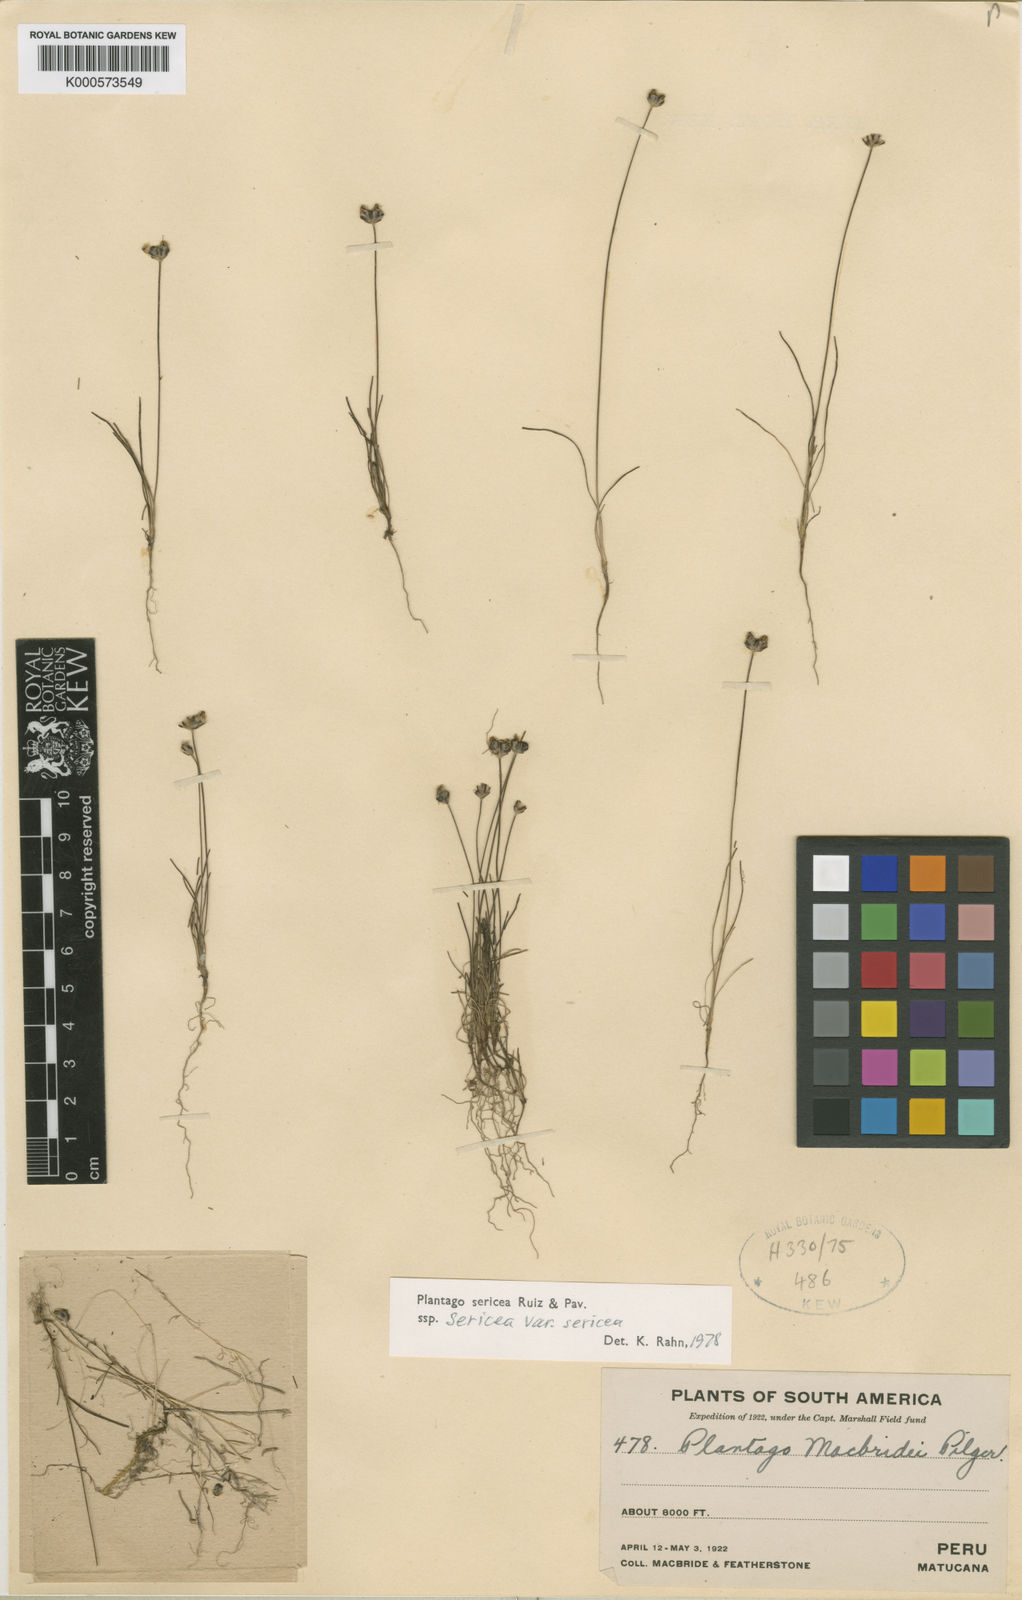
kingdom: Plantae
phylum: Tracheophyta
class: Magnoliopsida
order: Lamiales
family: Plantaginaceae
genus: Plantago
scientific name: Plantago sericea
